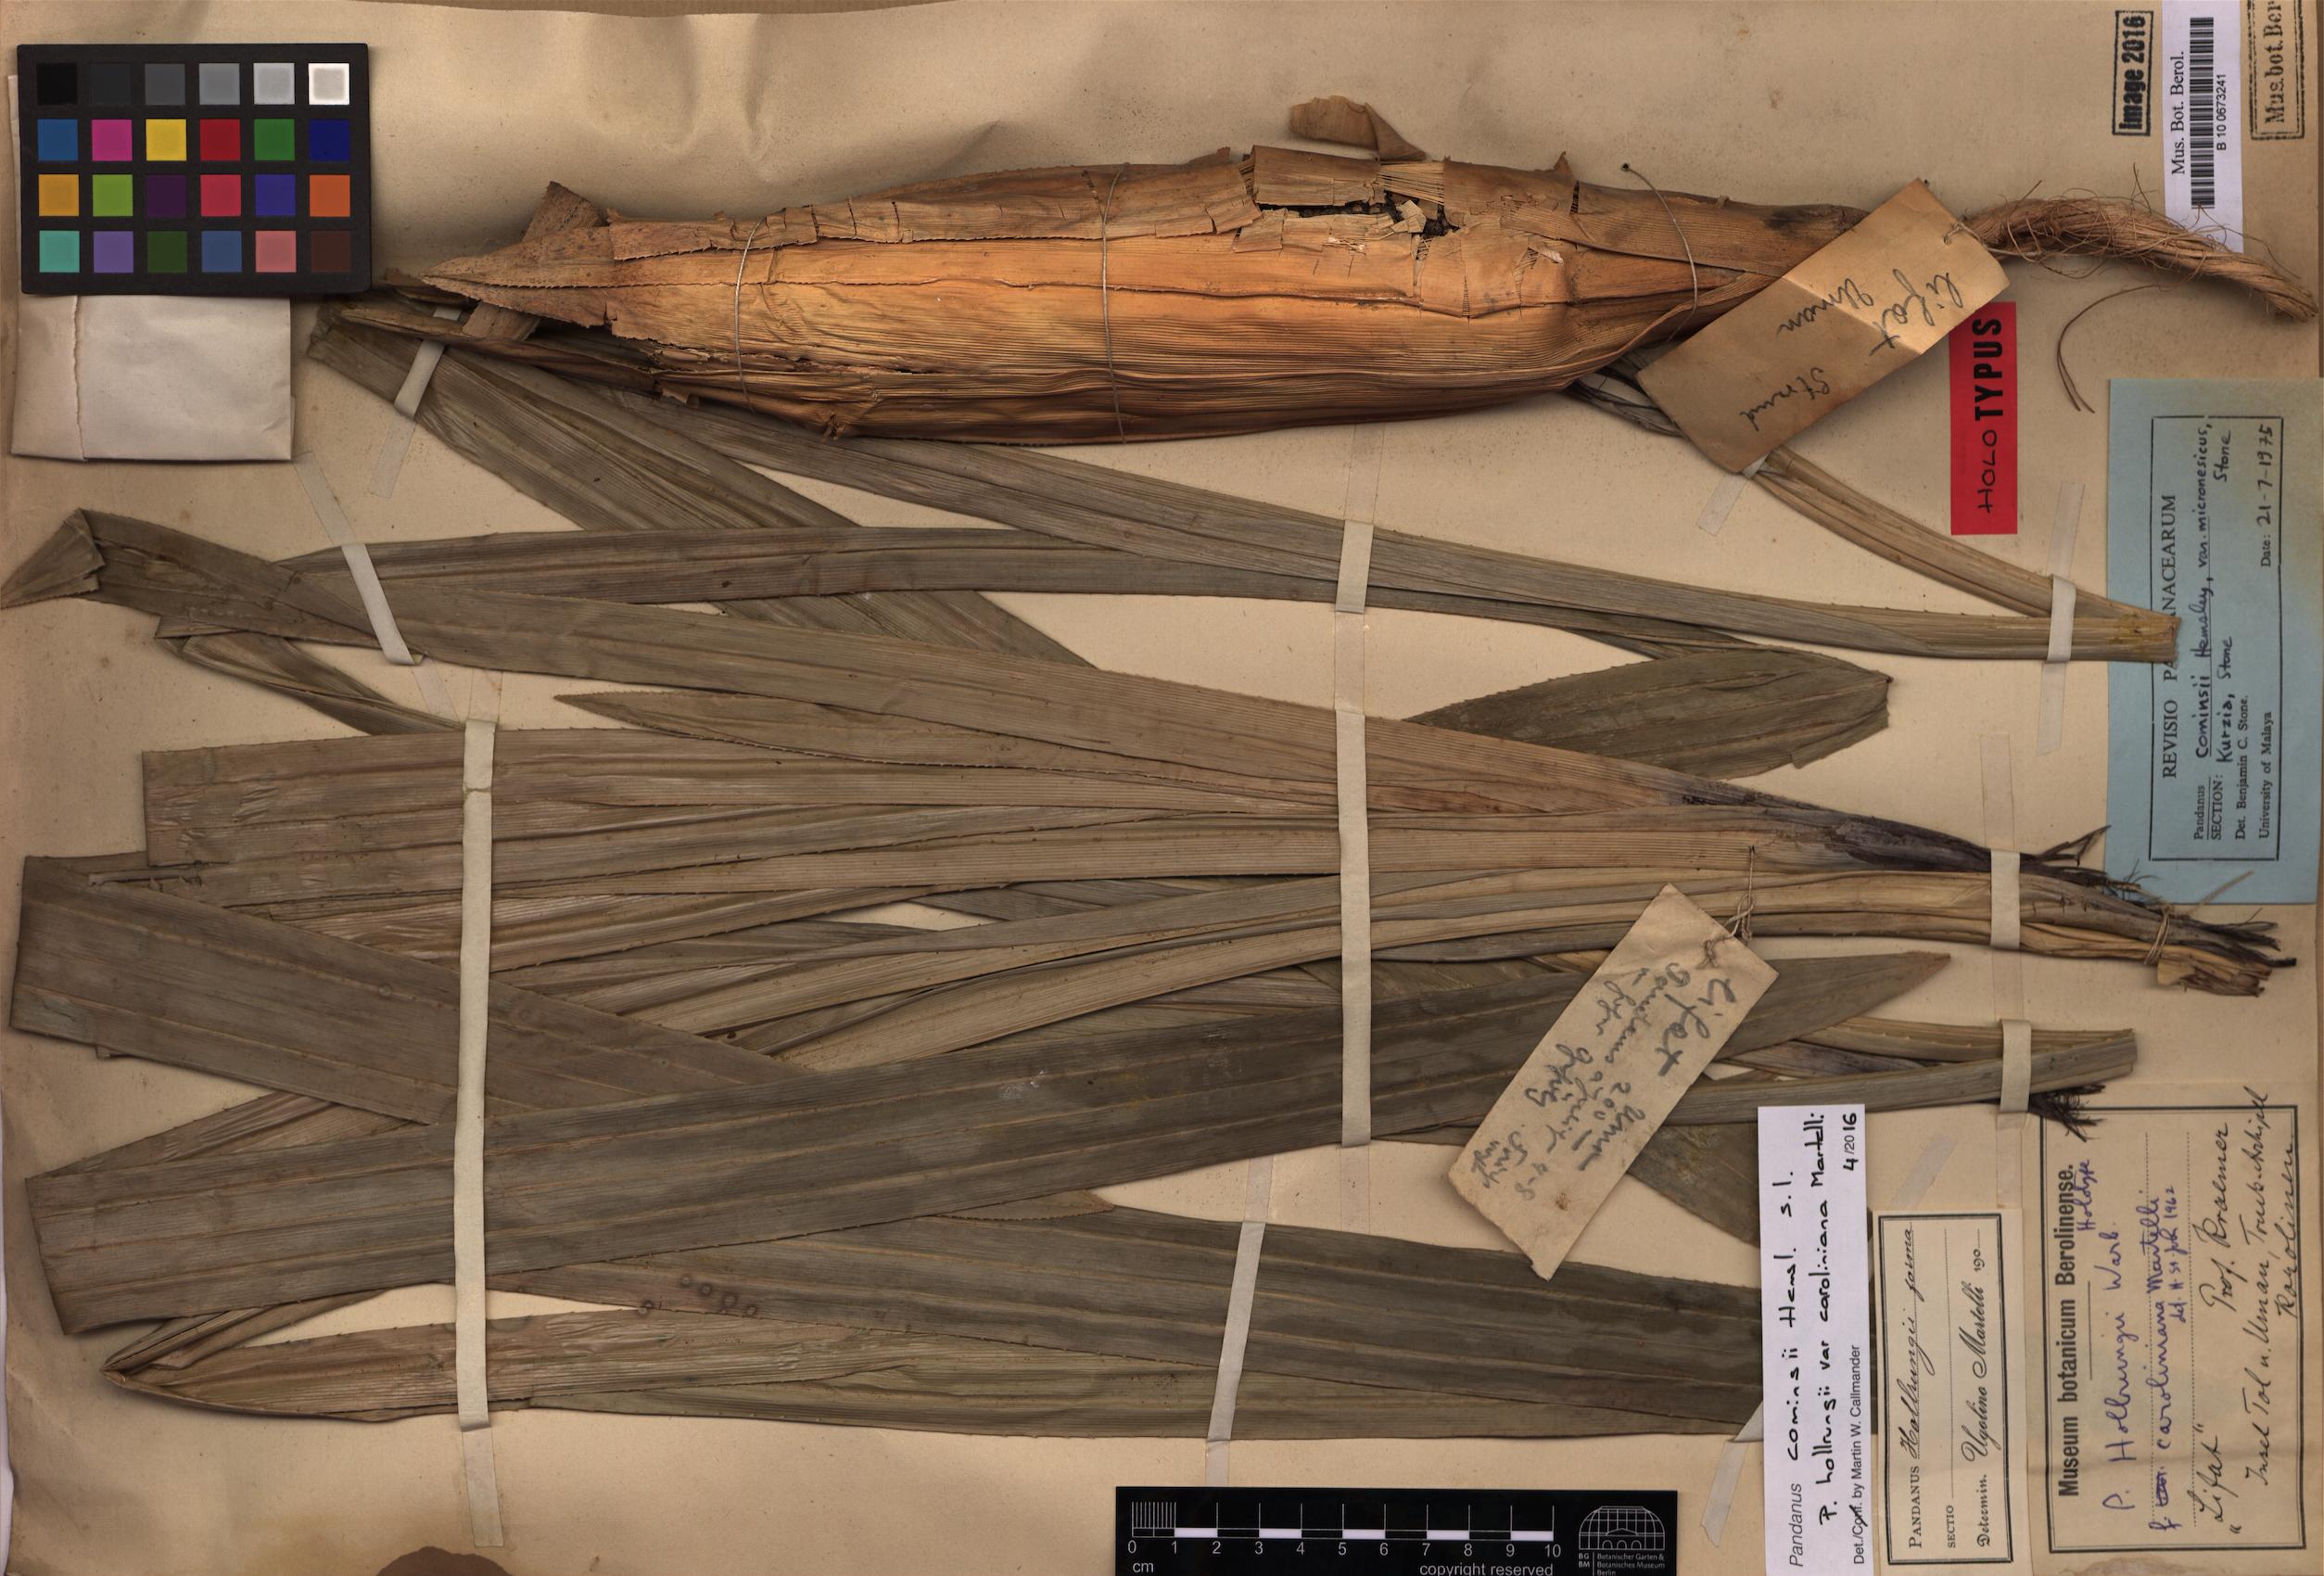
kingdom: Plantae
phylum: Tracheophyta
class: Liliopsida
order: Pandanales
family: Pandanaceae
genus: Pandanus
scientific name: Pandanus conoideus
